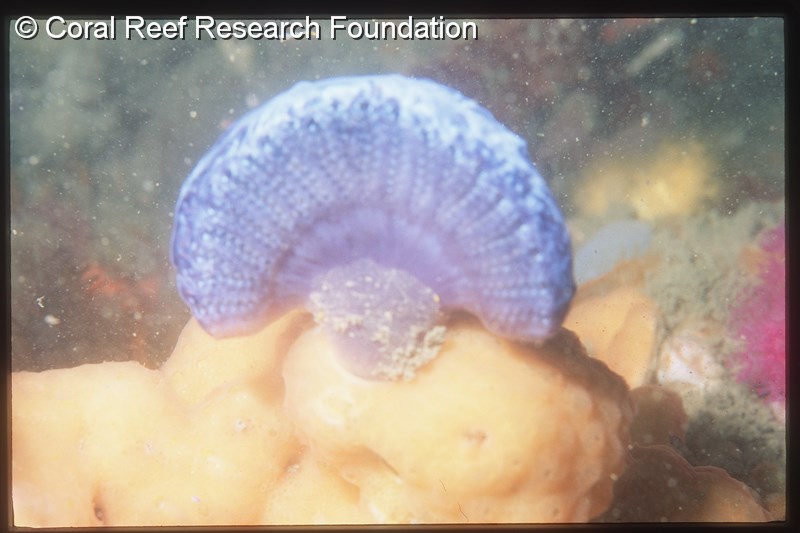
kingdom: Animalia
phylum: Chordata
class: Ascidiacea
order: Aplousobranchia
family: Holozoidae
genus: Sycozoa
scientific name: Sycozoa arborescens
